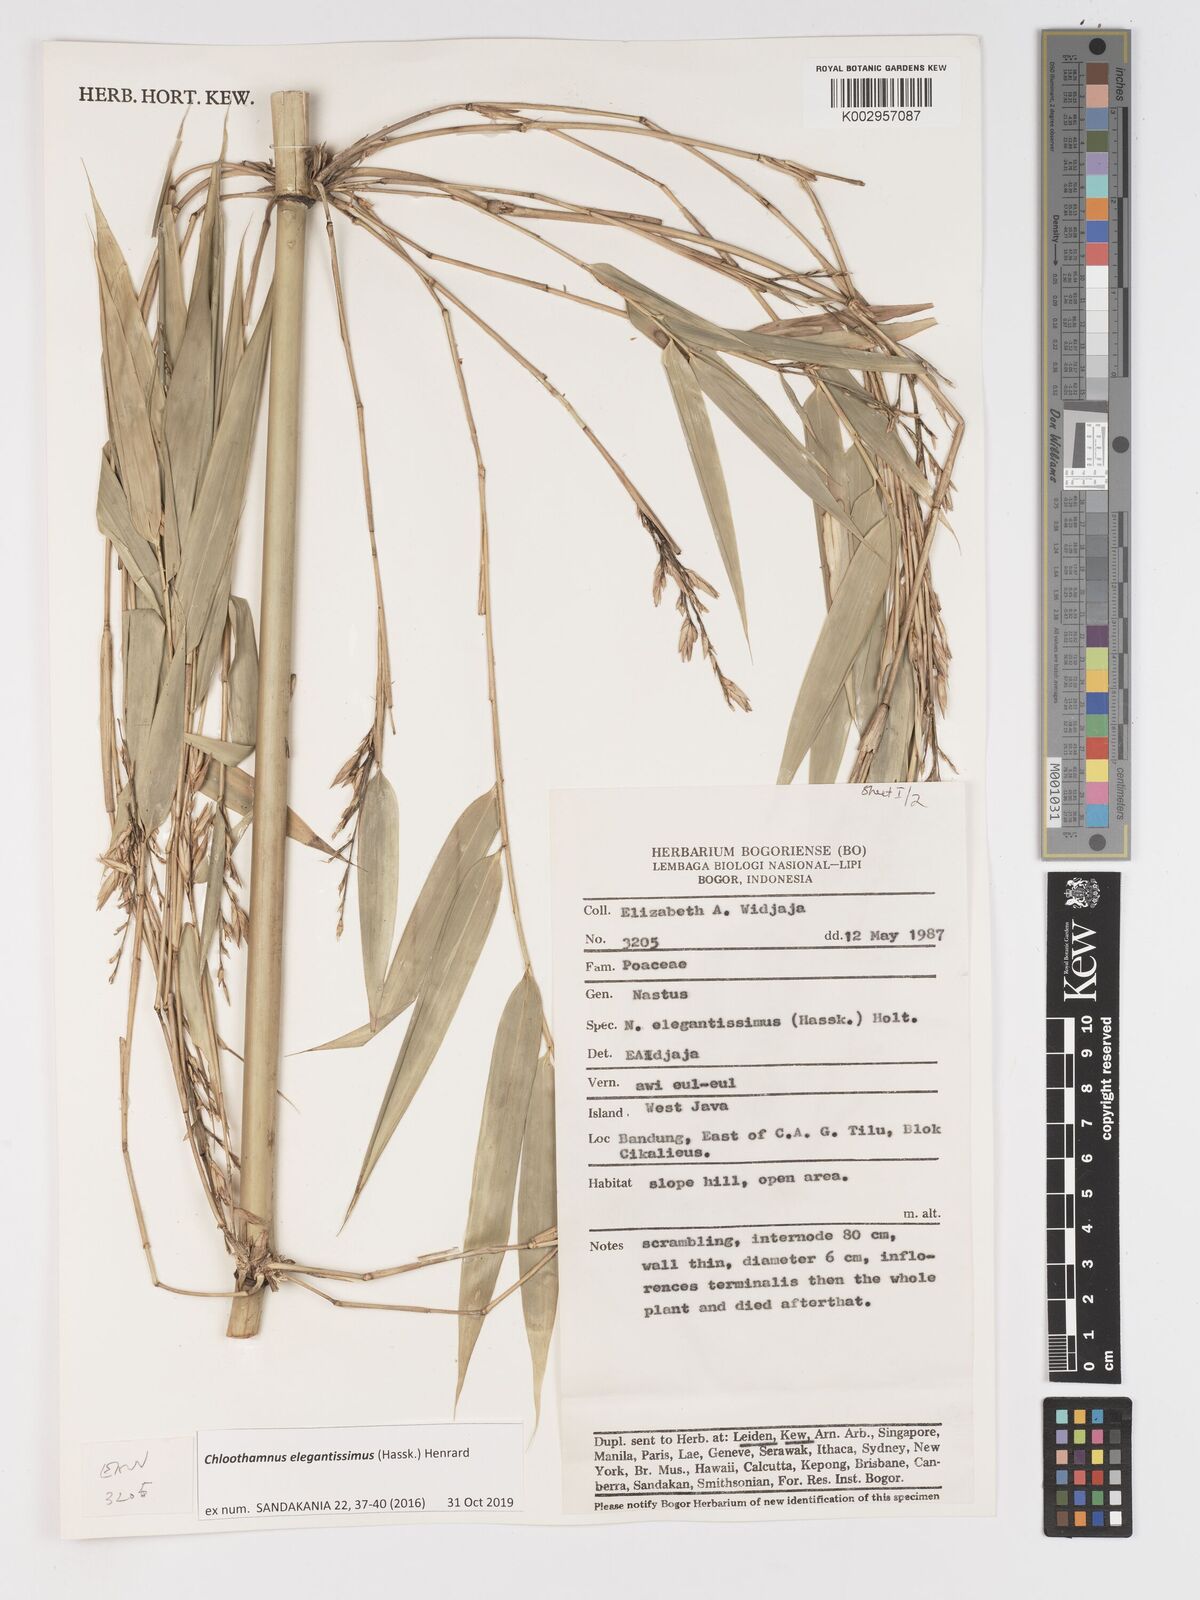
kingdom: Plantae
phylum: Tracheophyta
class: Liliopsida
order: Poales
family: Poaceae
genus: Chloothamnus
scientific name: Chloothamnus elegantissimus
